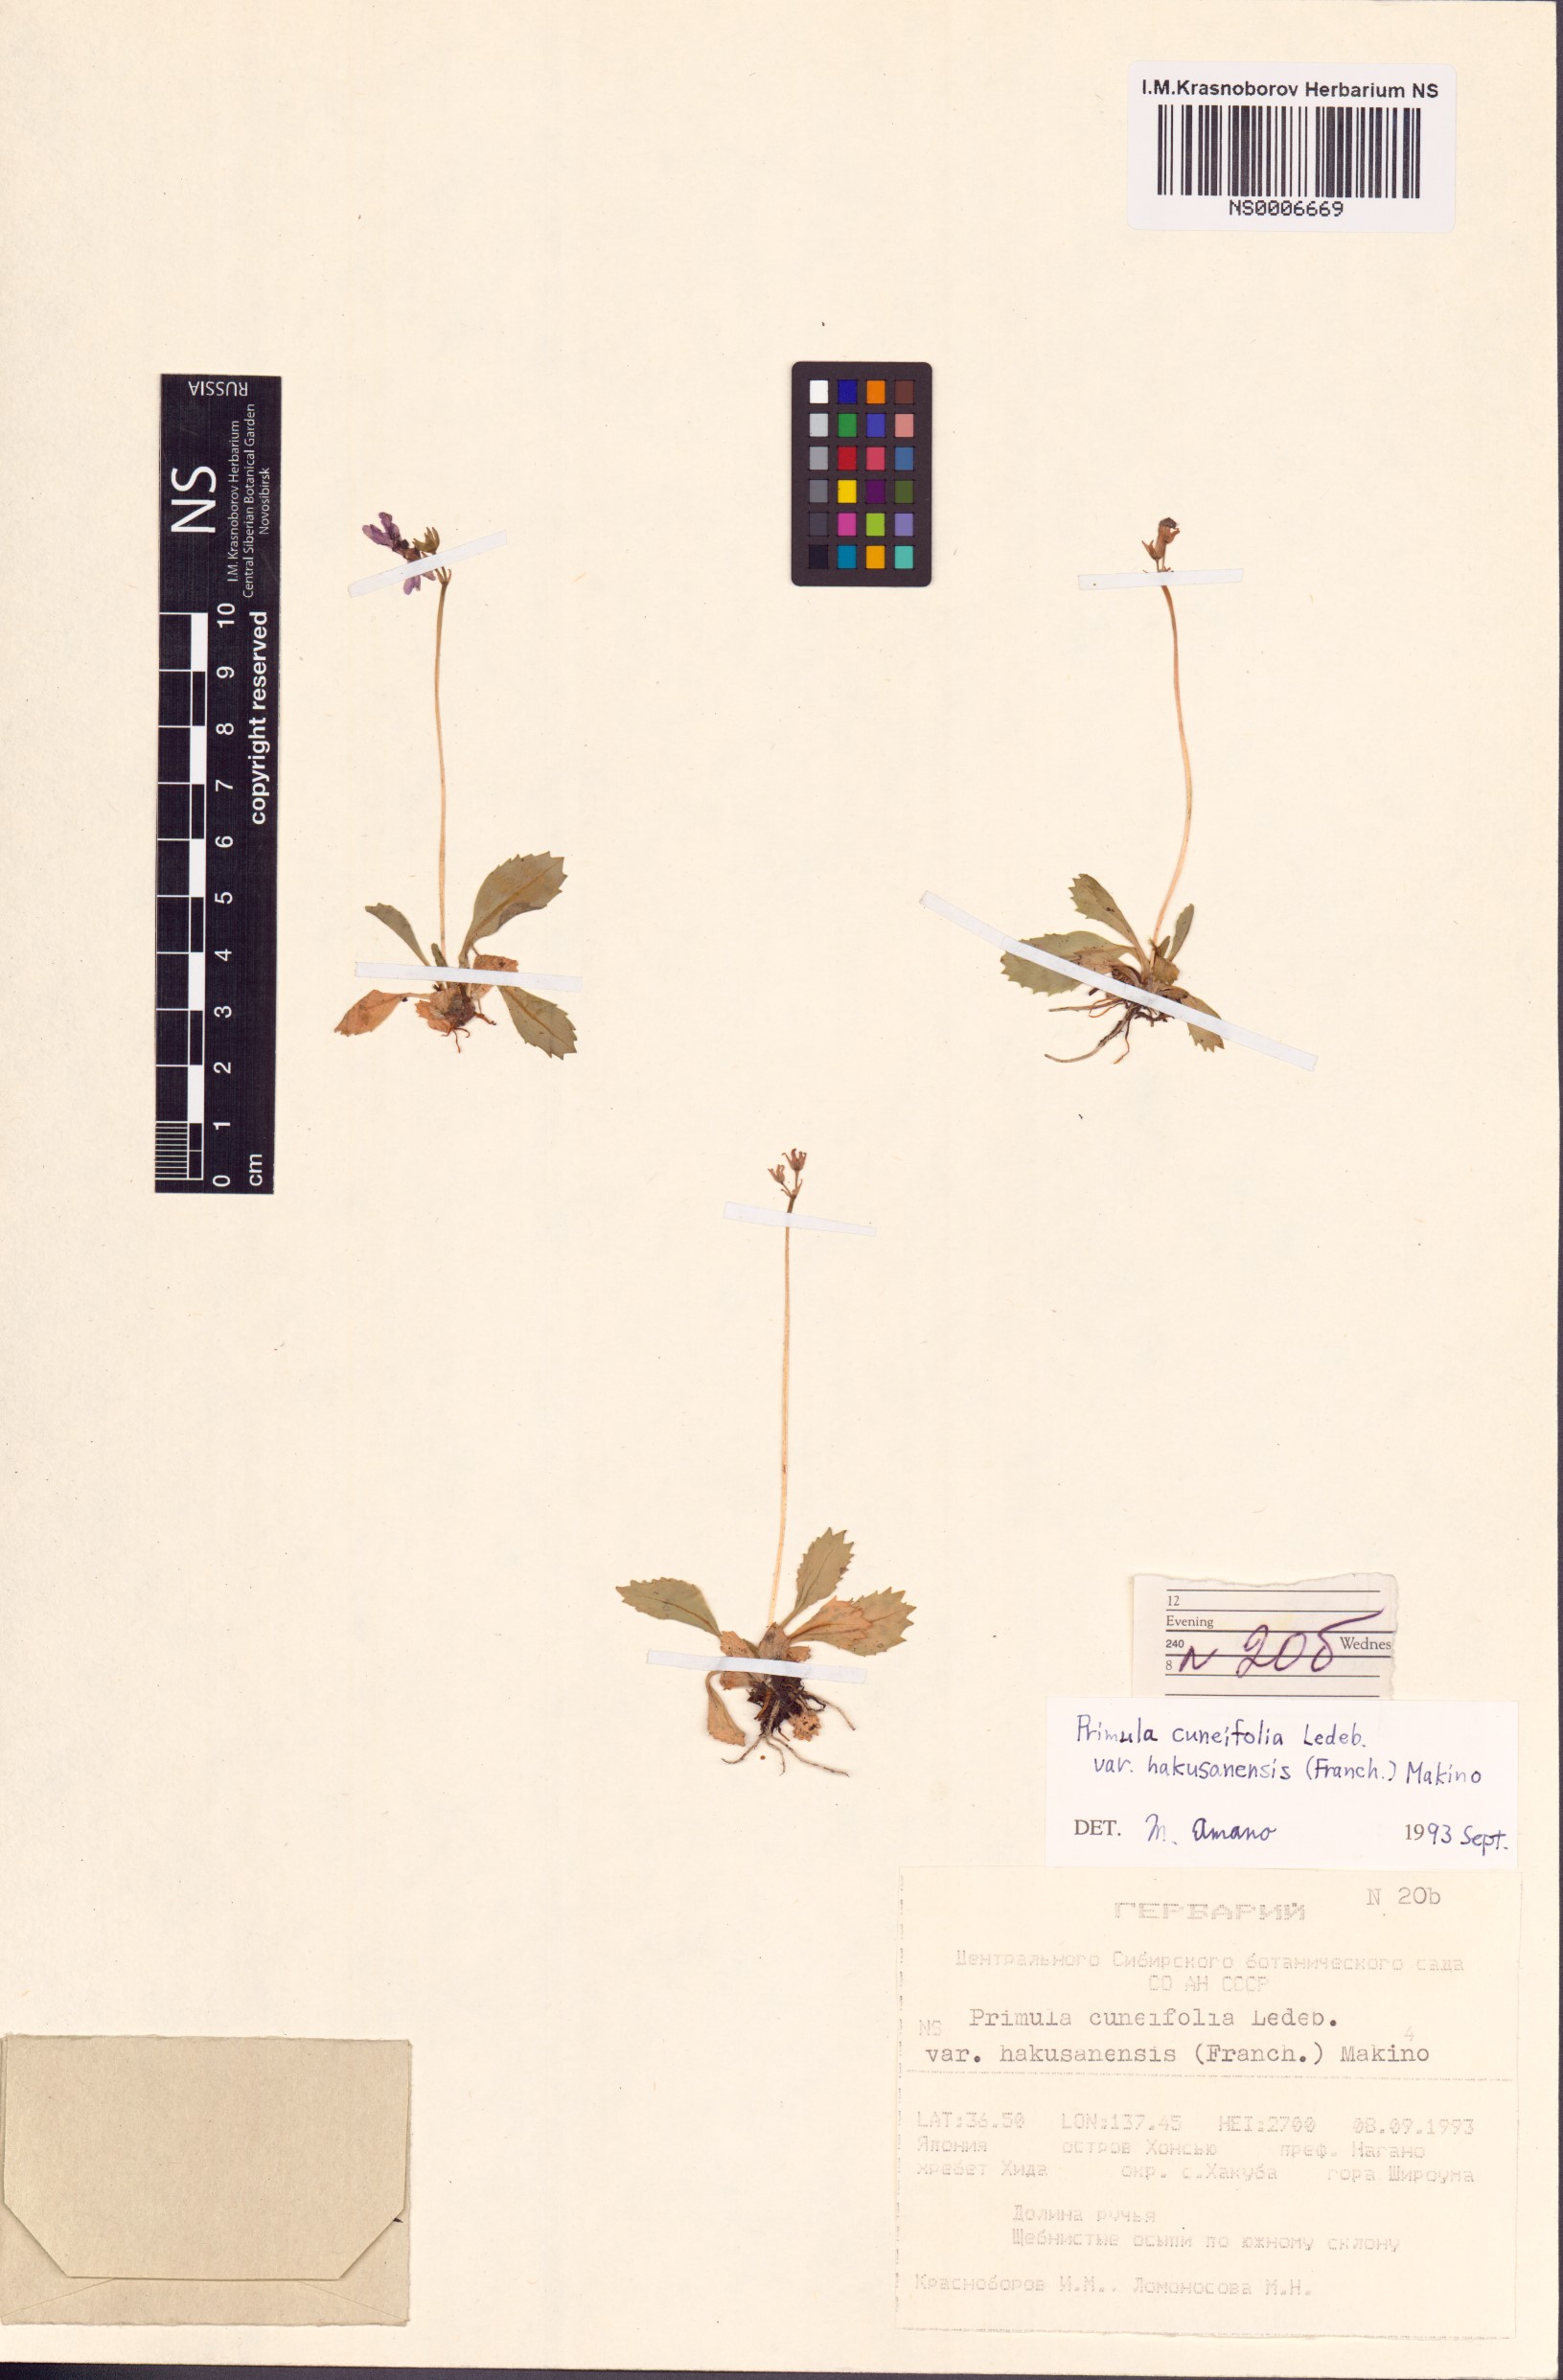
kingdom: Plantae
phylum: Tracheophyta
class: Magnoliopsida
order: Ericales
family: Primulaceae
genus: Primula
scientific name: Primula cuneifolia
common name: Wedge-leaved primrose
